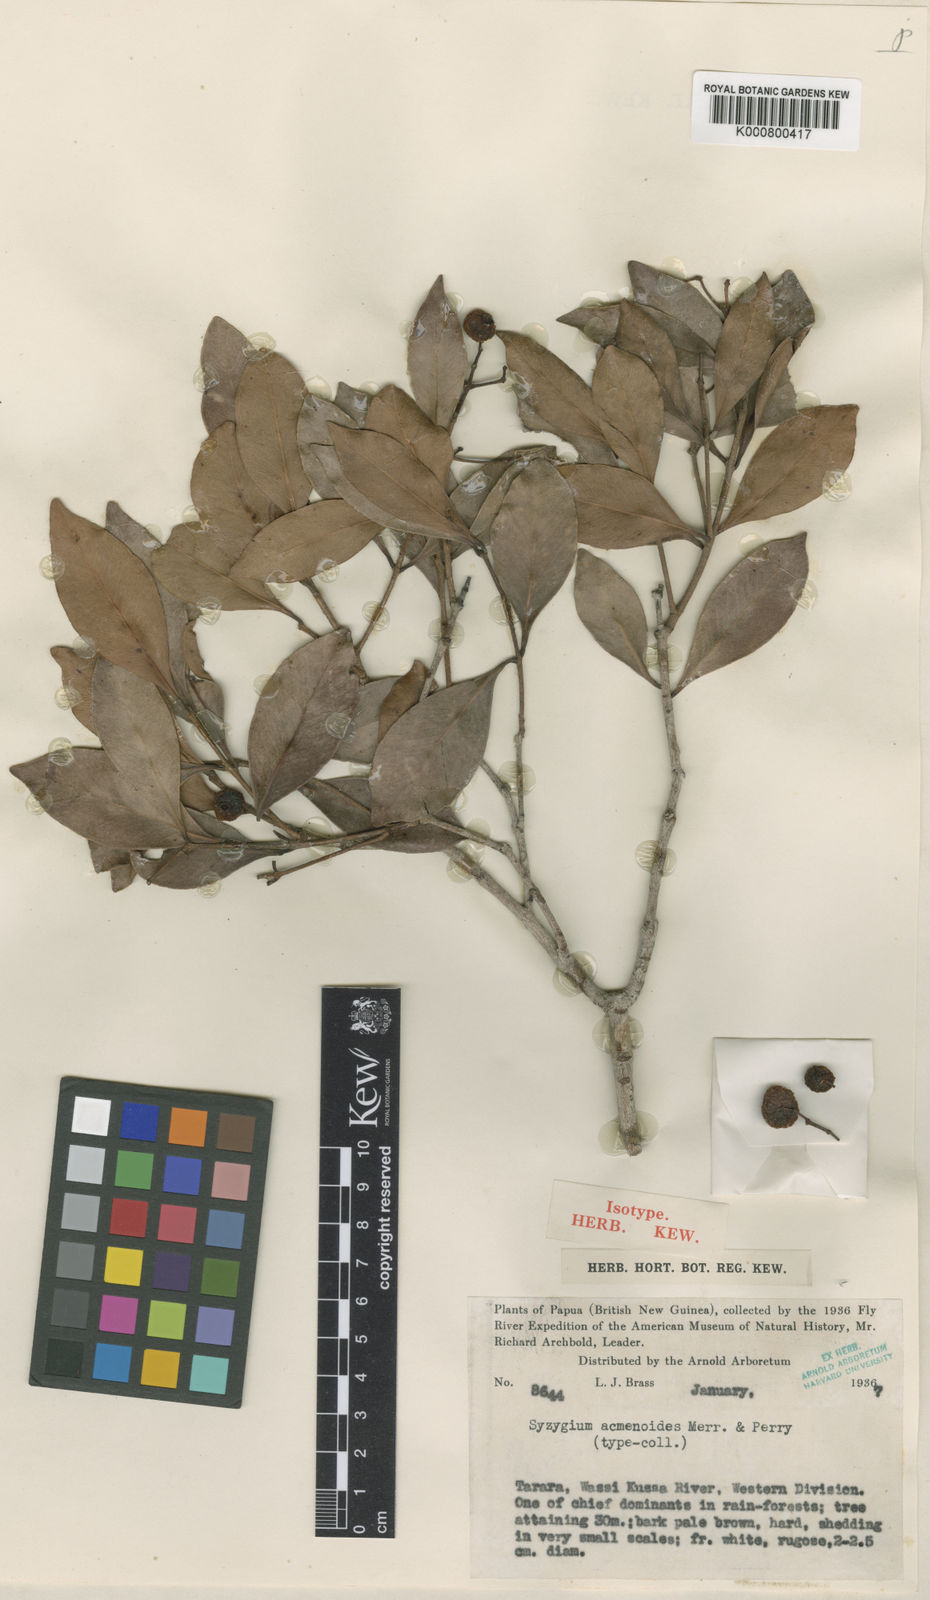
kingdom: Plantae
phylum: Tracheophyta
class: Magnoliopsida
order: Myrtales
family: Myrtaceae
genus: Syzygium
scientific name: Syzygium hemilamprum
